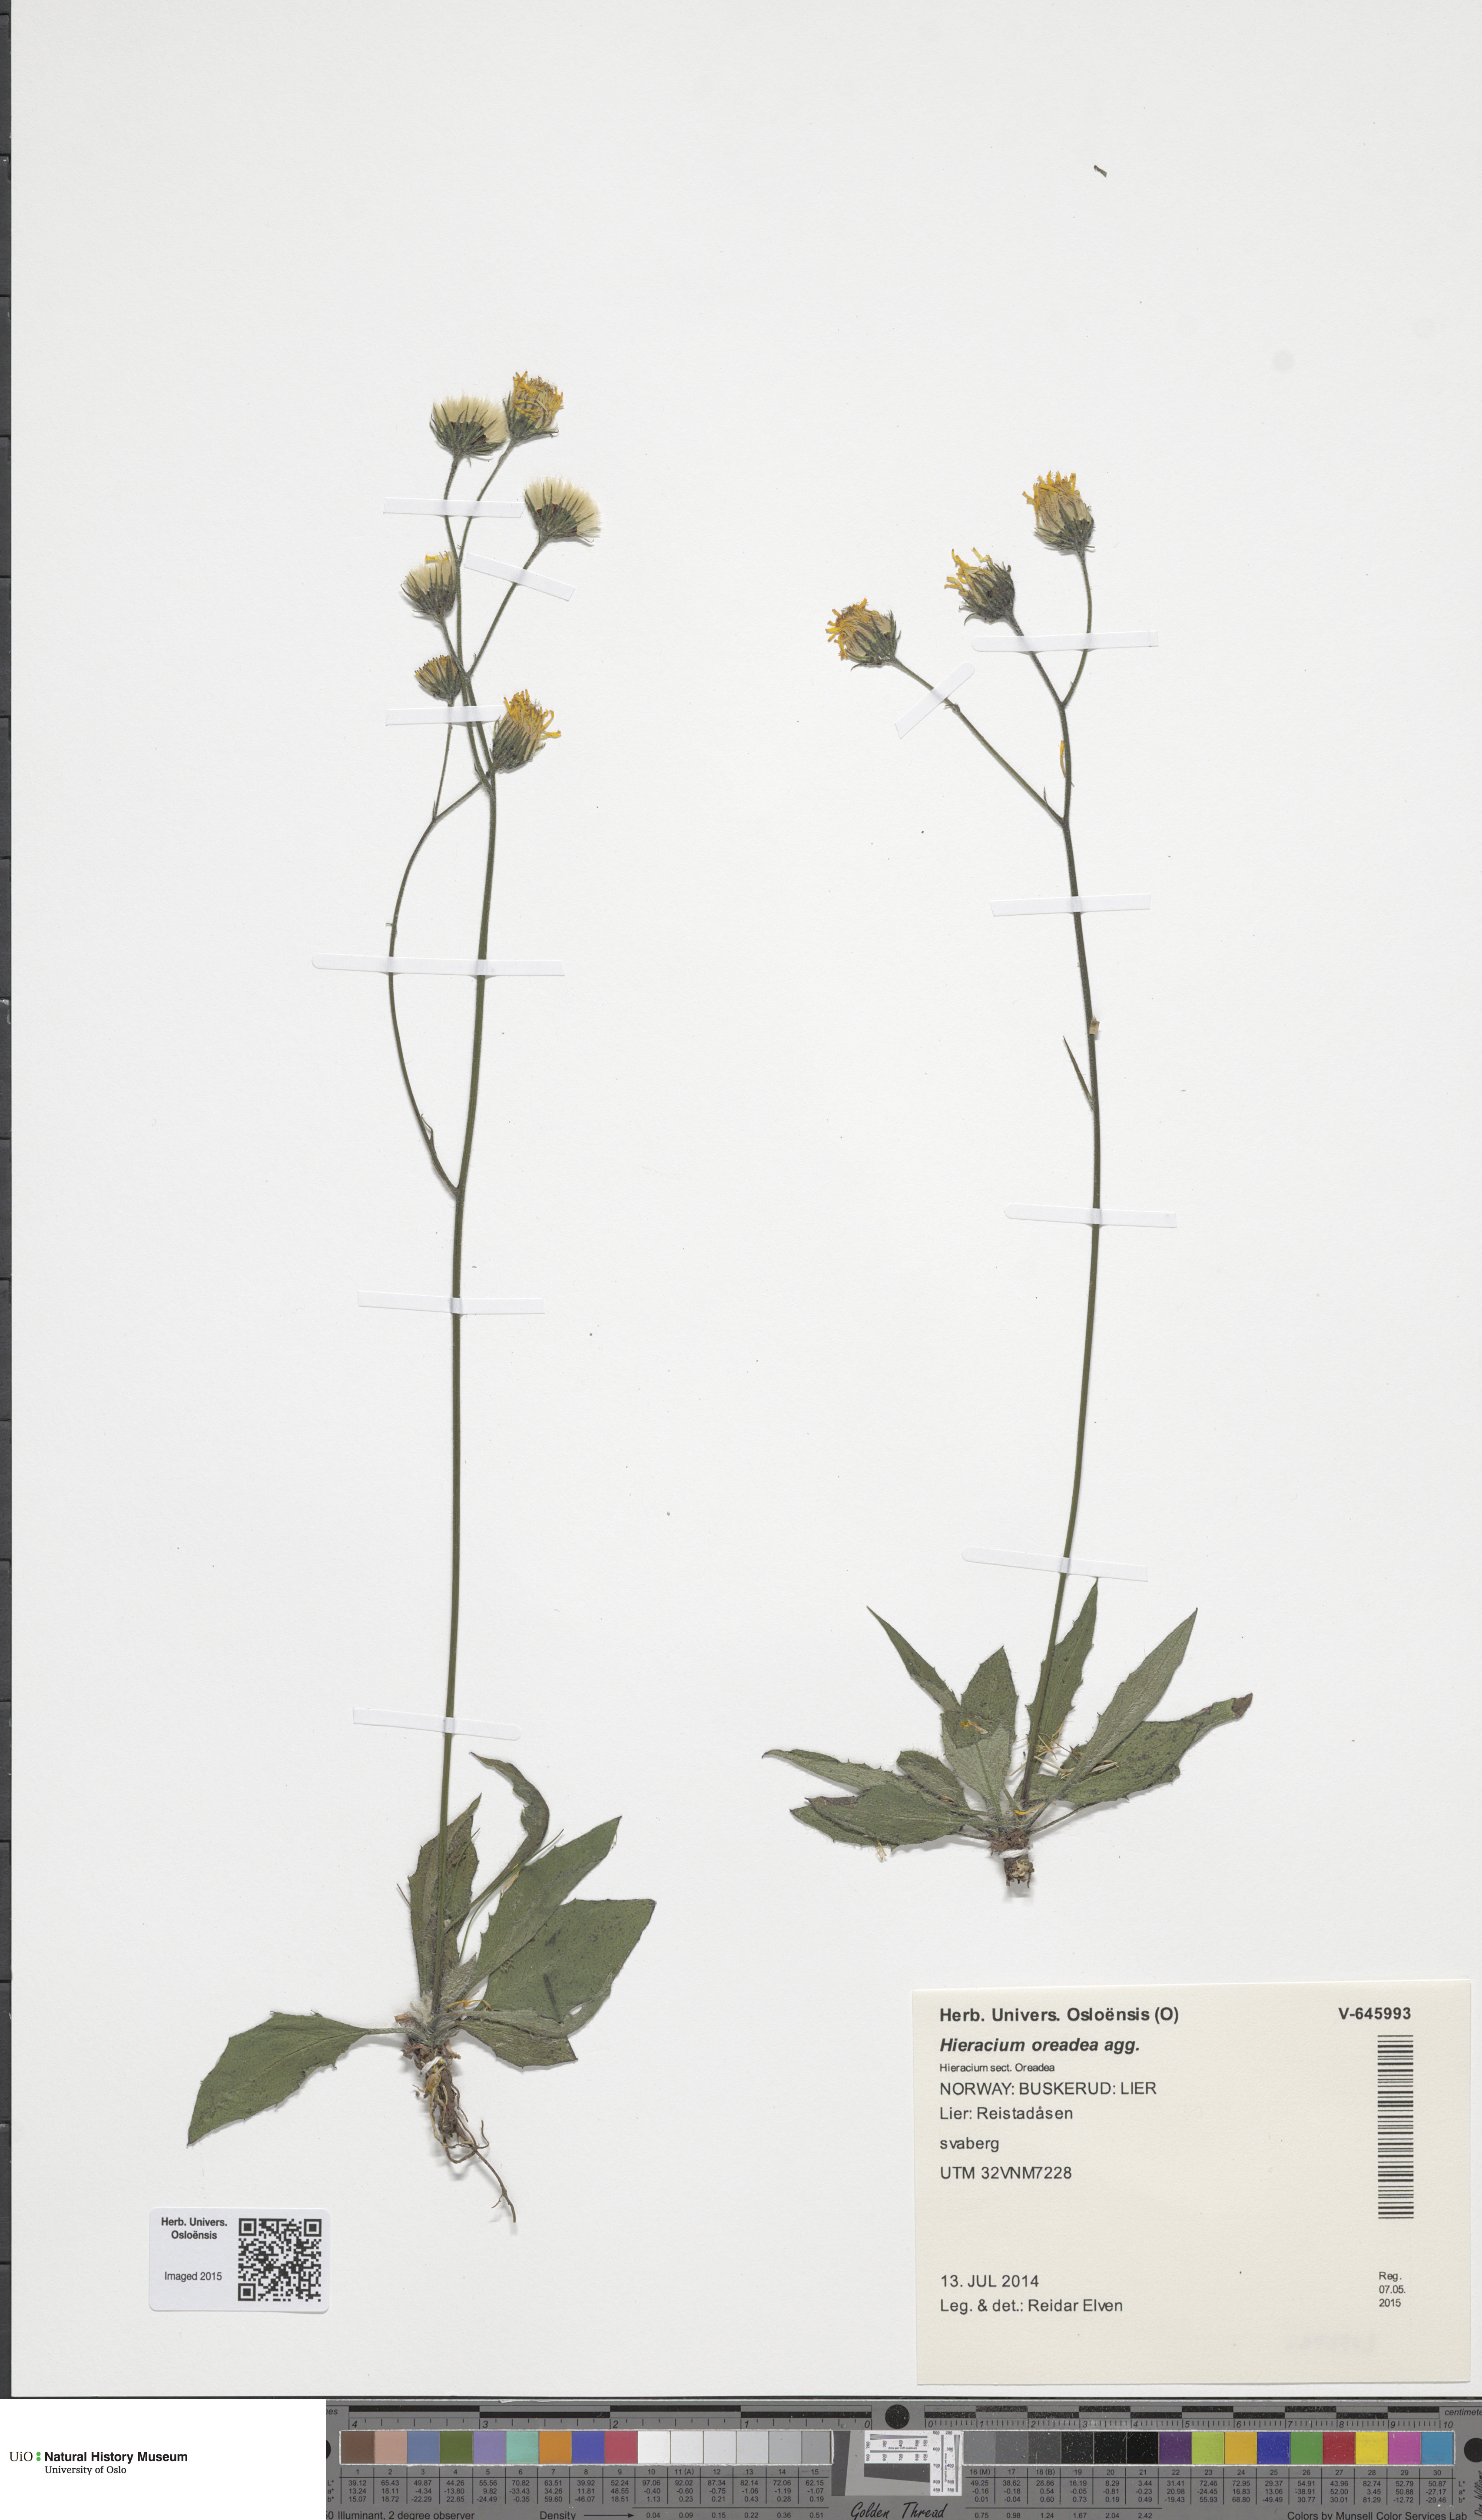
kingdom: Plantae
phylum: Tracheophyta
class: Magnoliopsida
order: Asterales
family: Asteraceae
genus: Hieracium
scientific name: Hieracium
